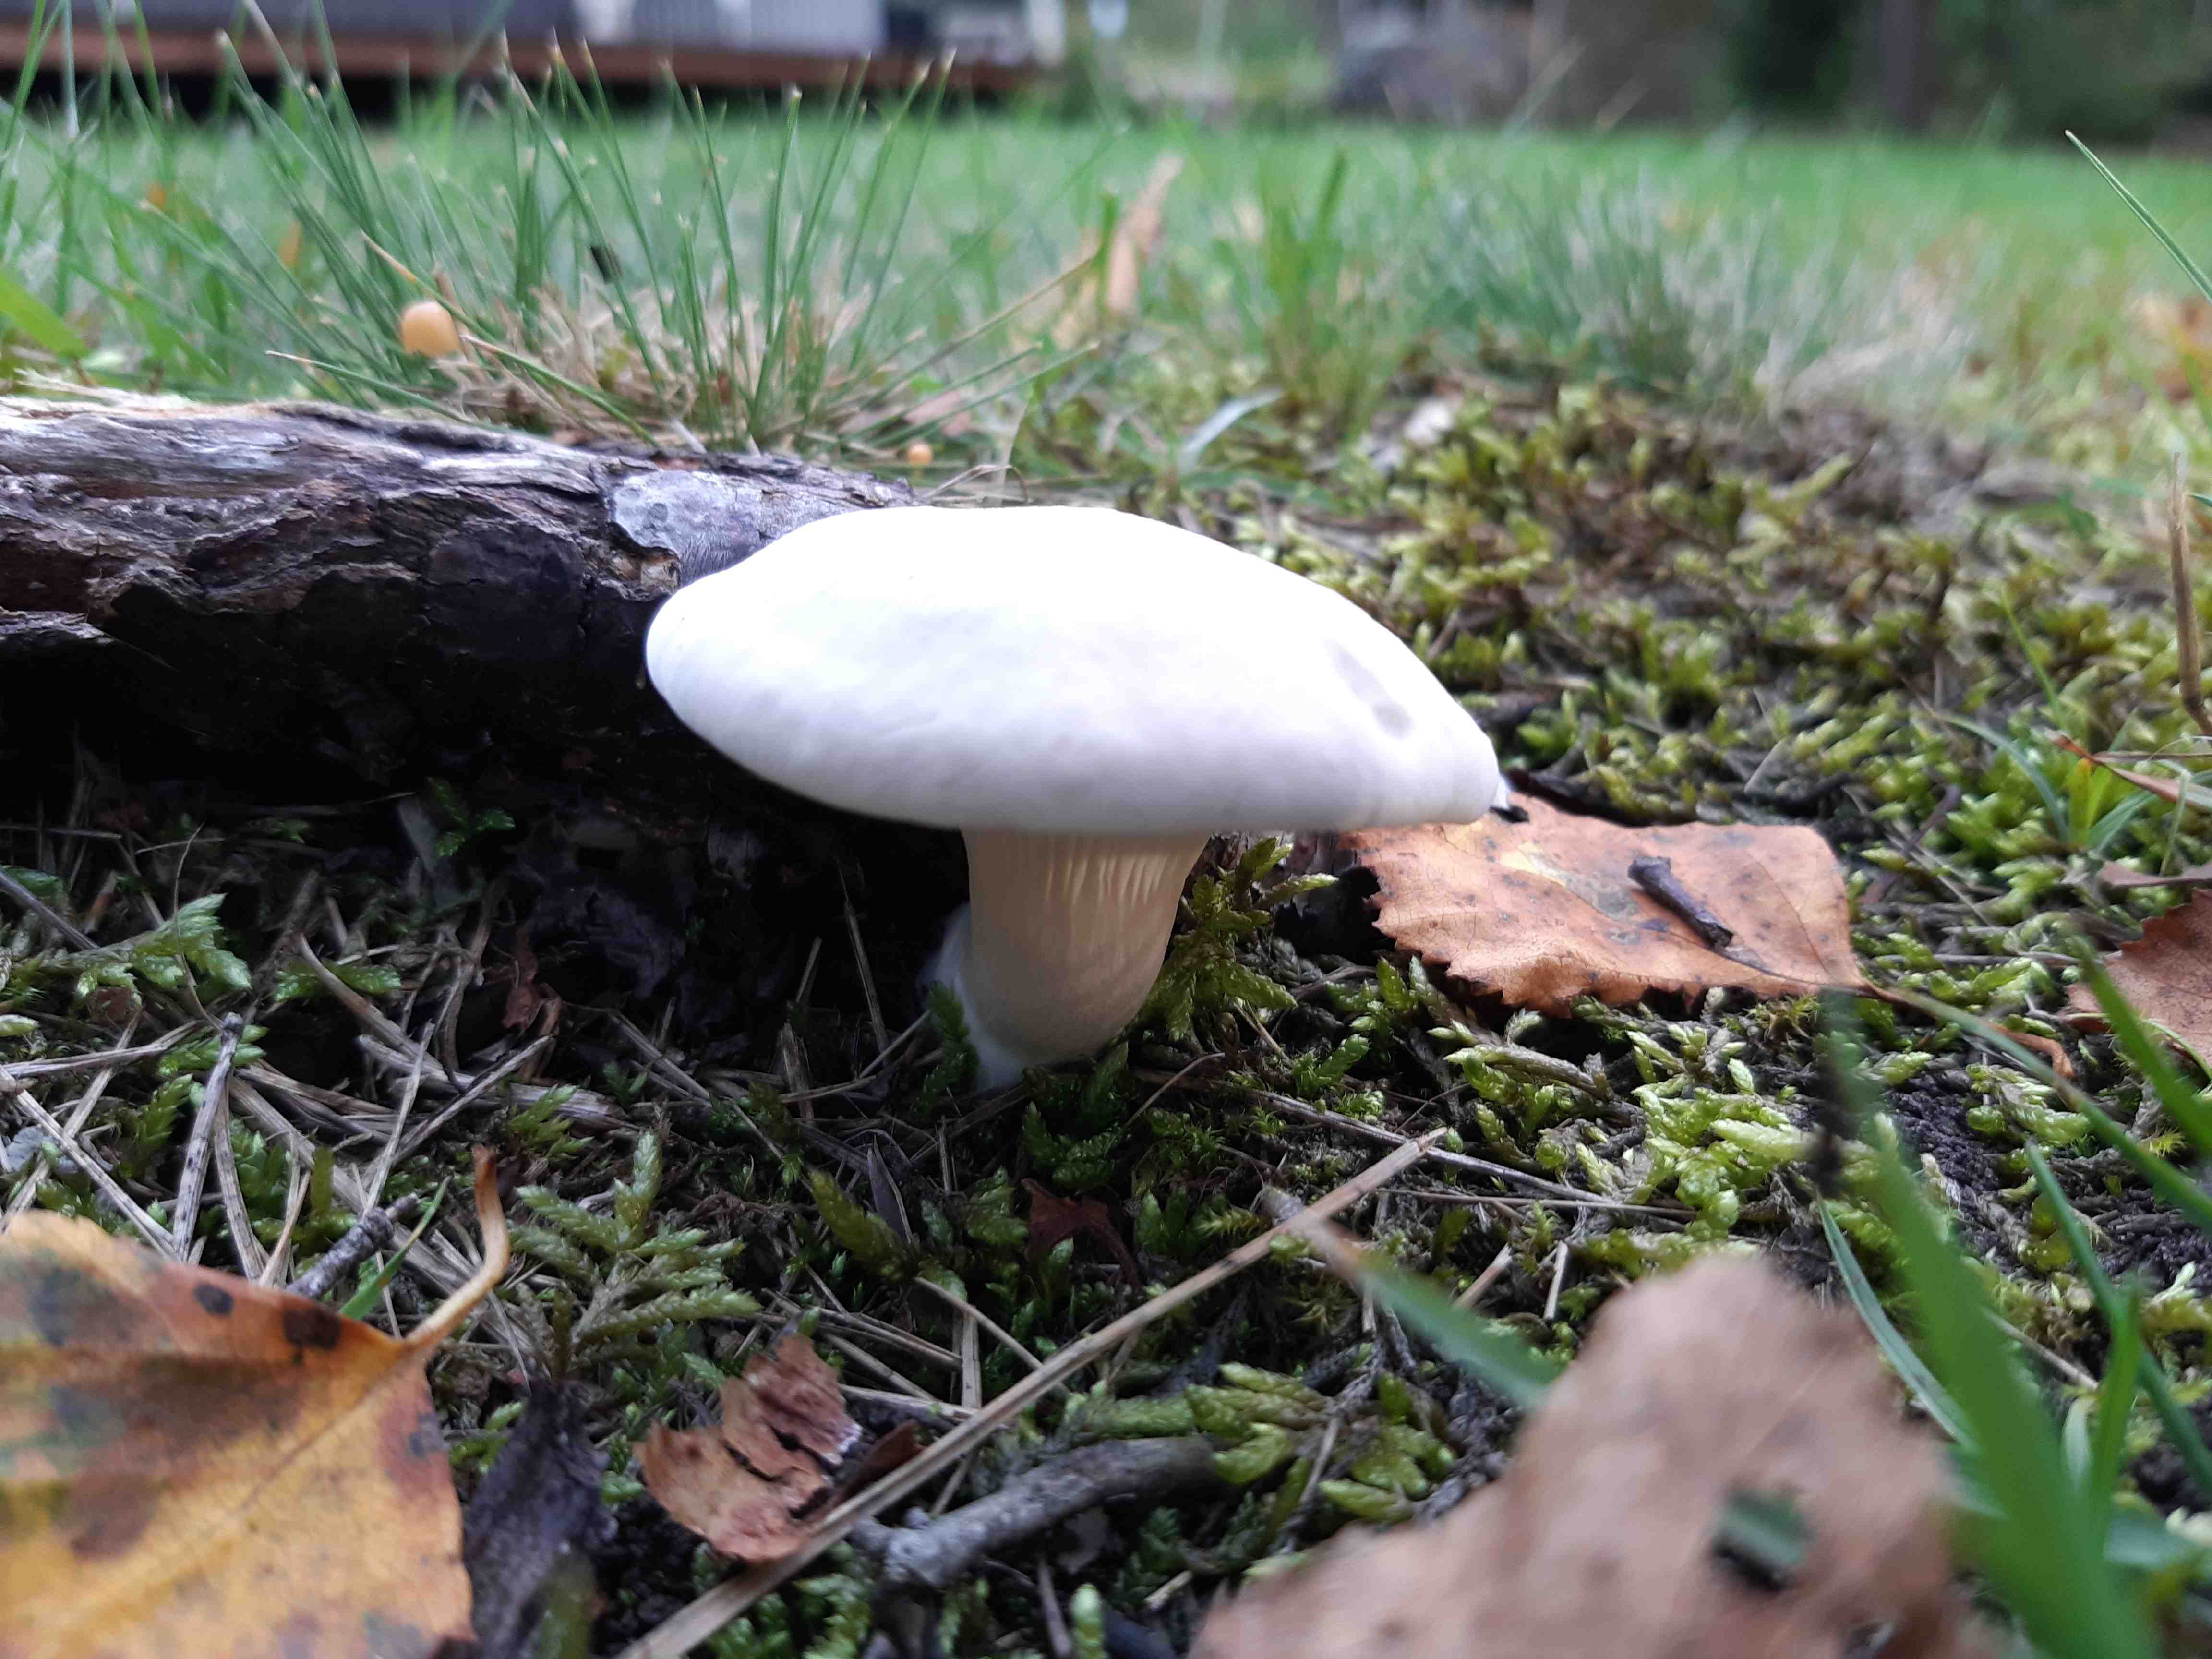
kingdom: Fungi
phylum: Basidiomycota
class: Agaricomycetes
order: Agaricales
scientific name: Agaricales
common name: champignonordenen
